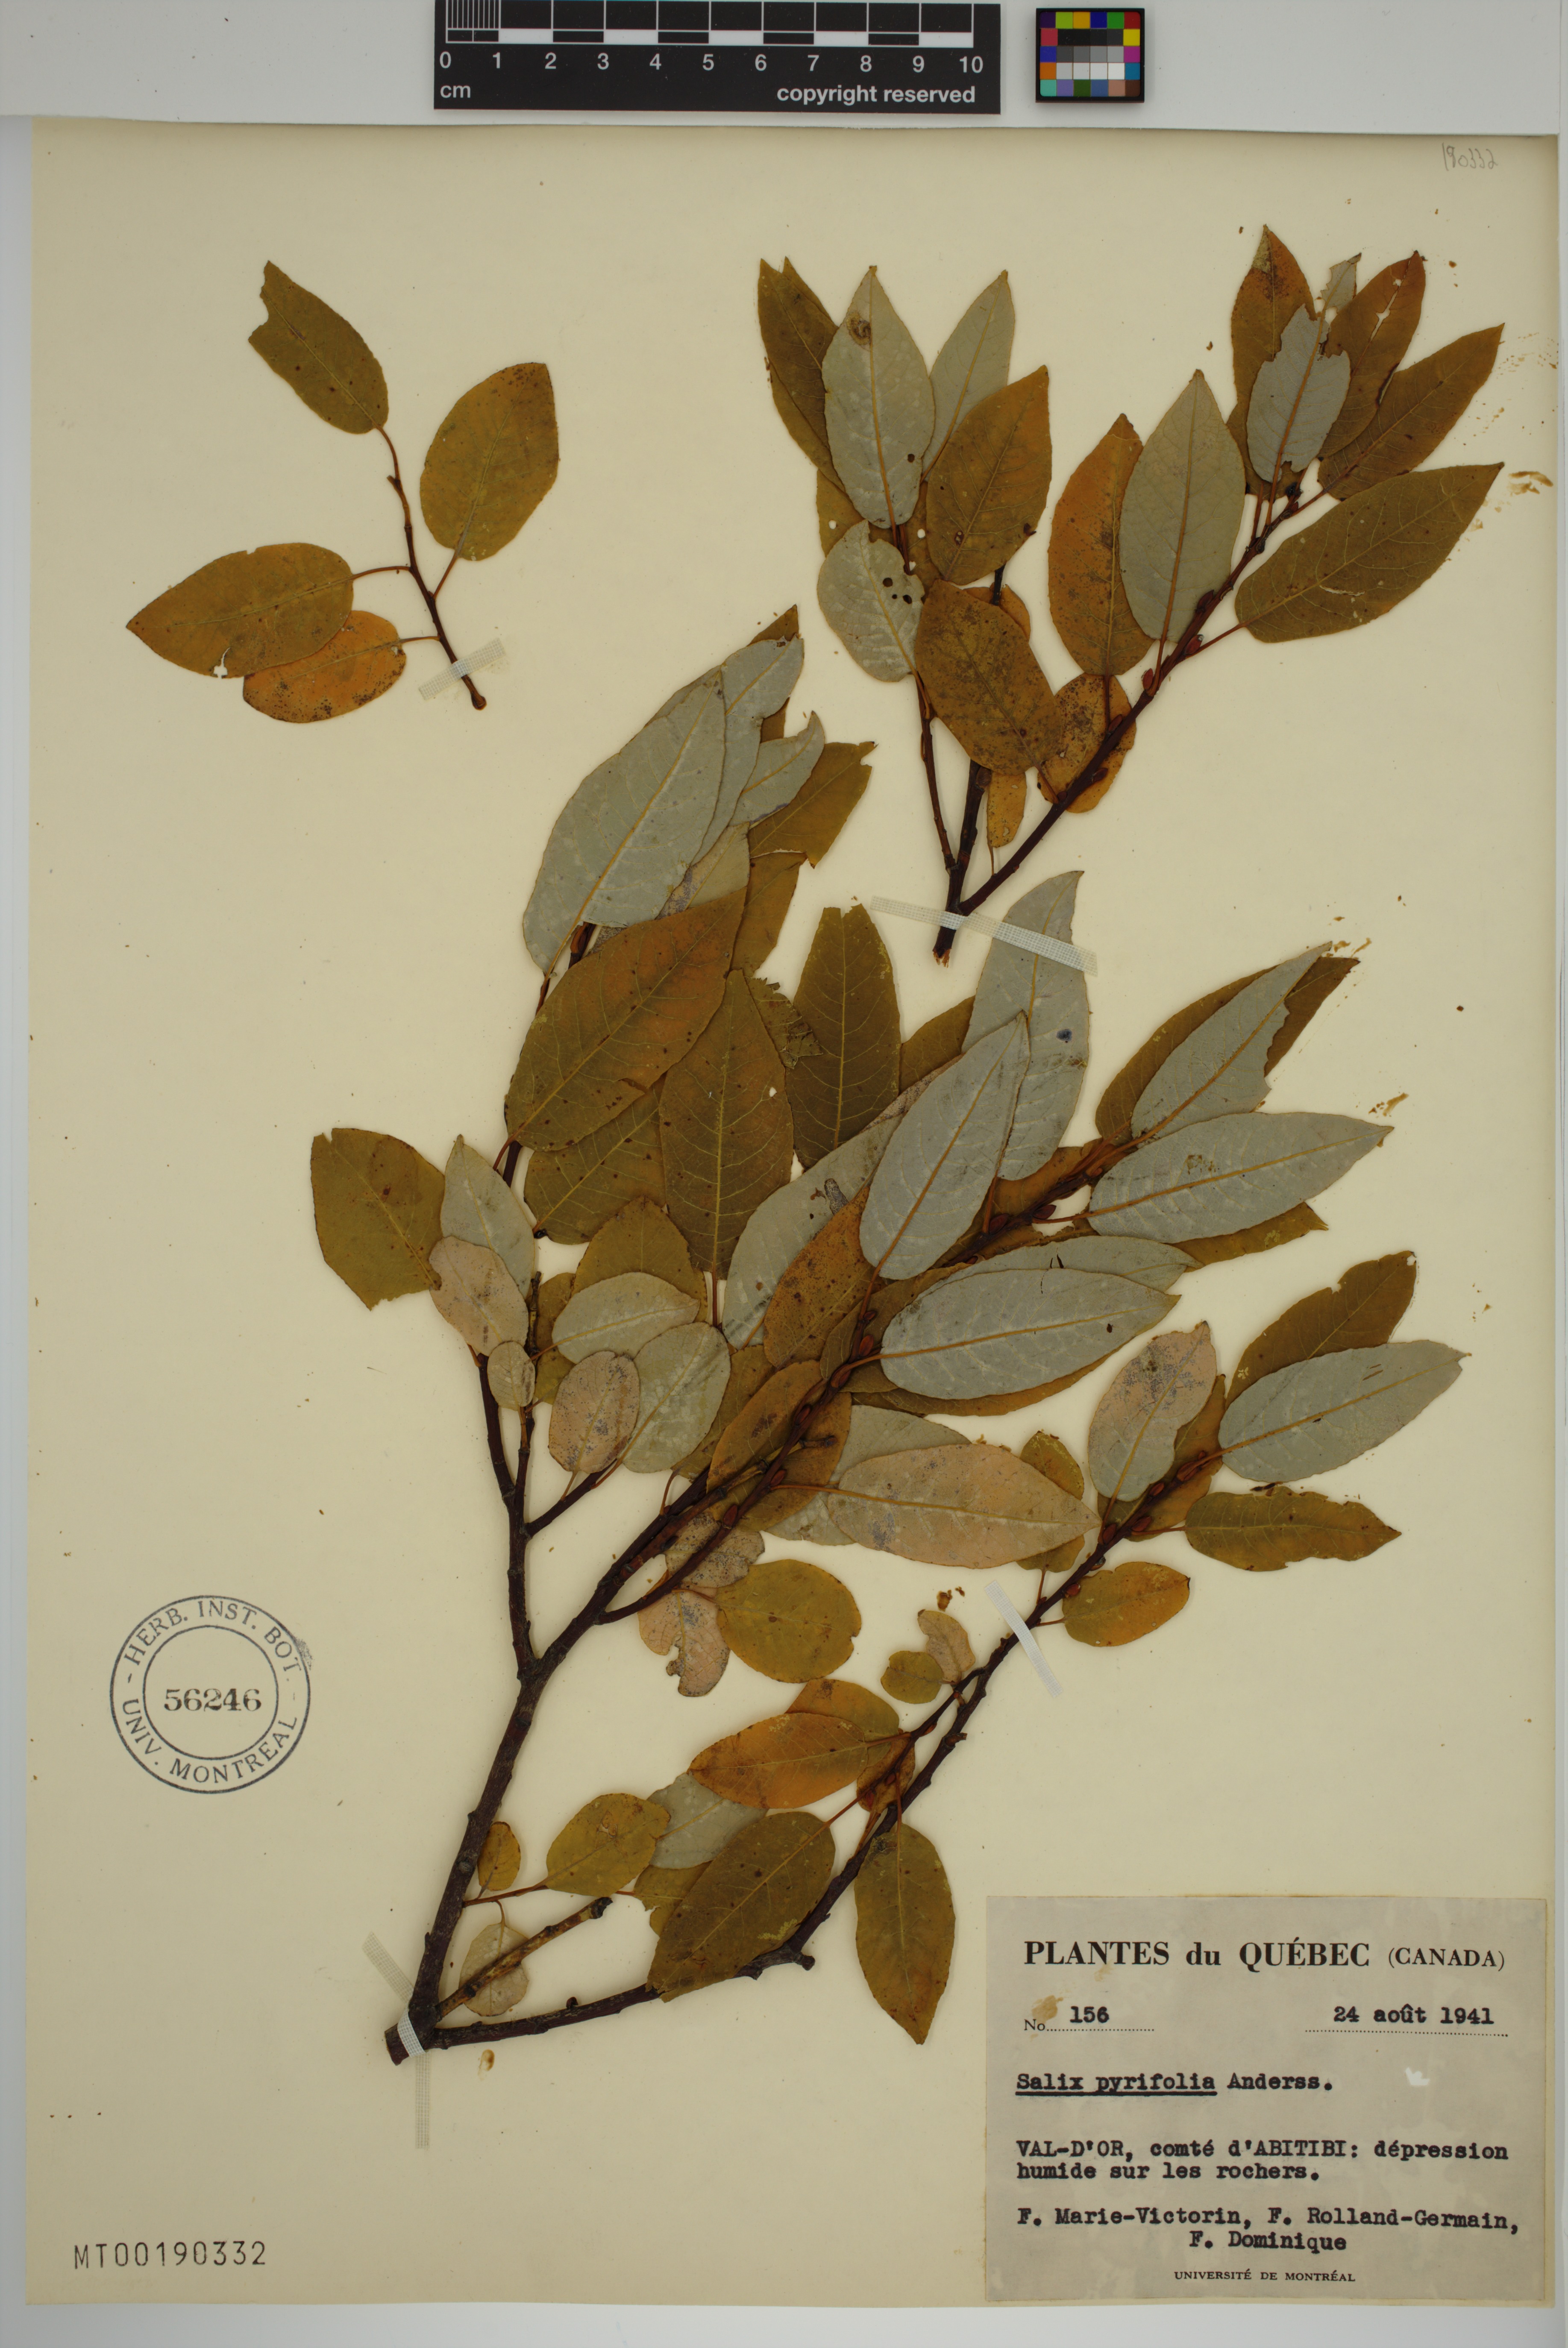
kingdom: Plantae
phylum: Tracheophyta
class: Magnoliopsida
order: Malpighiales
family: Salicaceae
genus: Salix
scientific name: Salix pyrifolia
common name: Balsam willow
